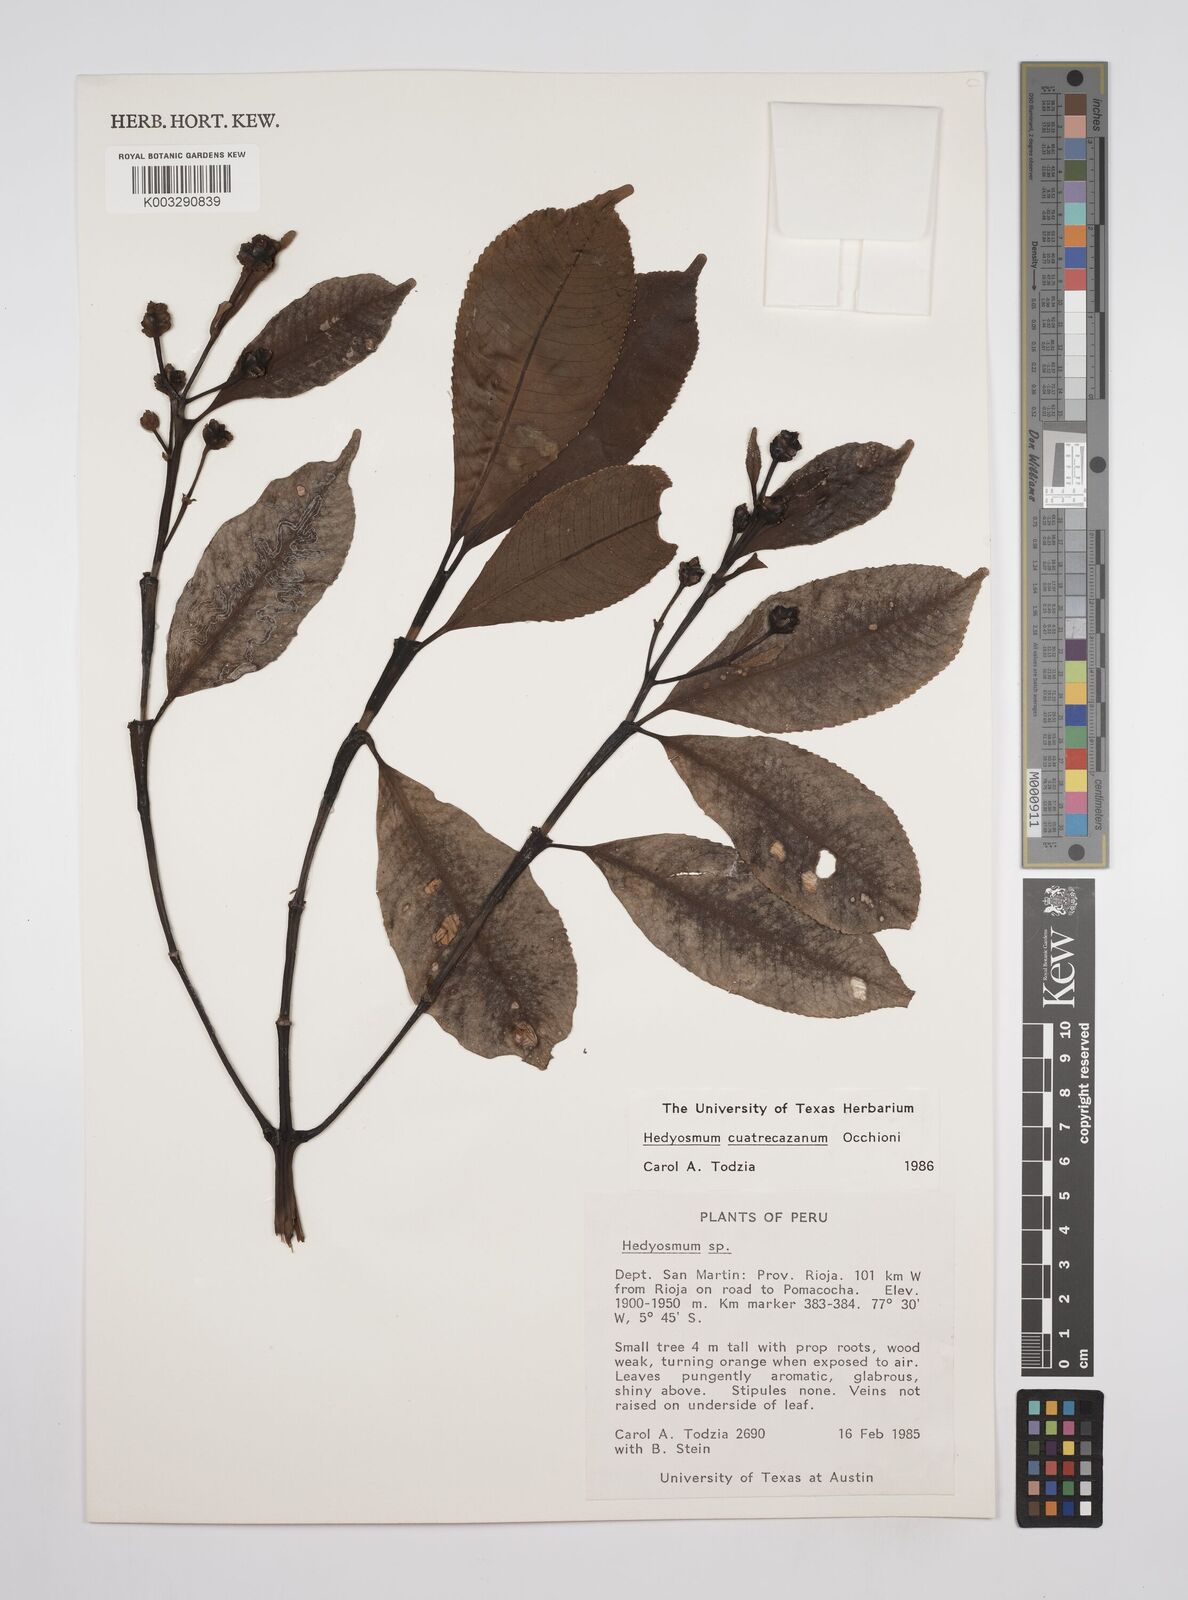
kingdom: Plantae
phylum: Tracheophyta
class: Magnoliopsida
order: Chloranthales
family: Chloranthaceae
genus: Hedyosmum
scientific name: Hedyosmum cuatrecazanum
